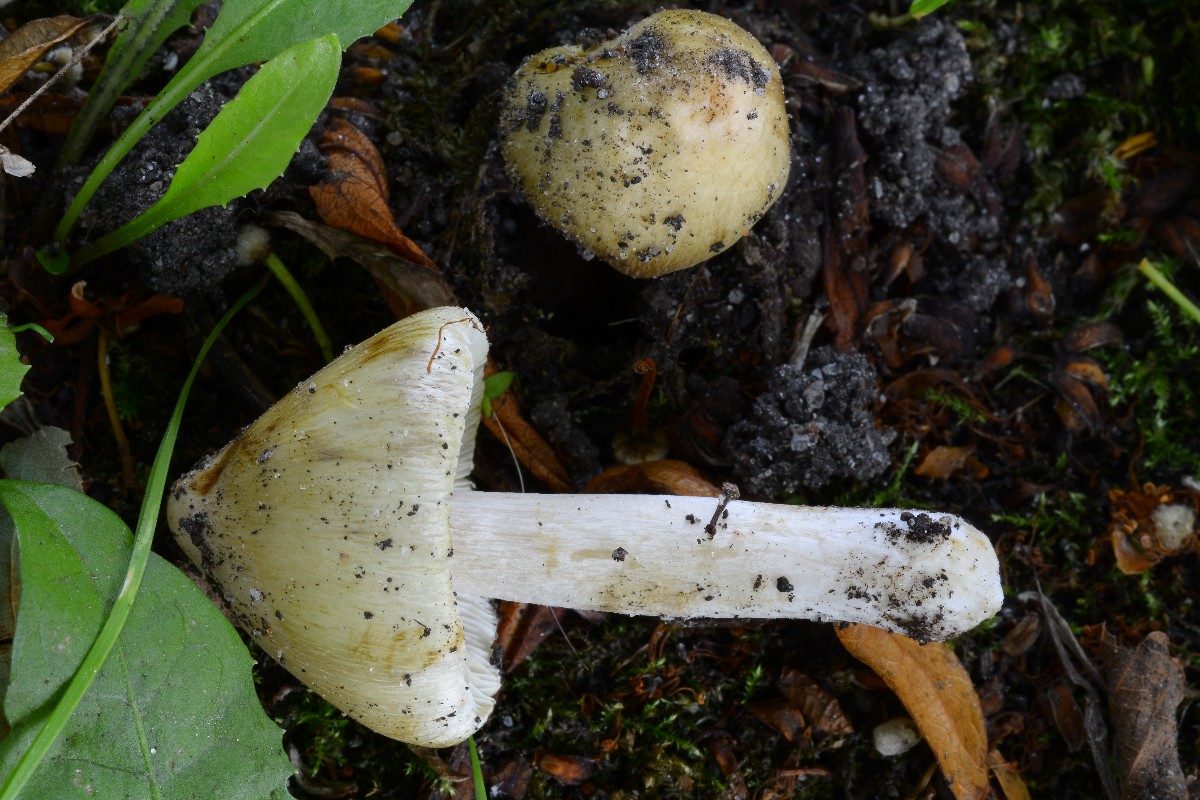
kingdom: Fungi
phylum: Basidiomycota
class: Agaricomycetes
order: Agaricales
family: Inocybaceae
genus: Pseudosperma
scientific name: Pseudosperma
